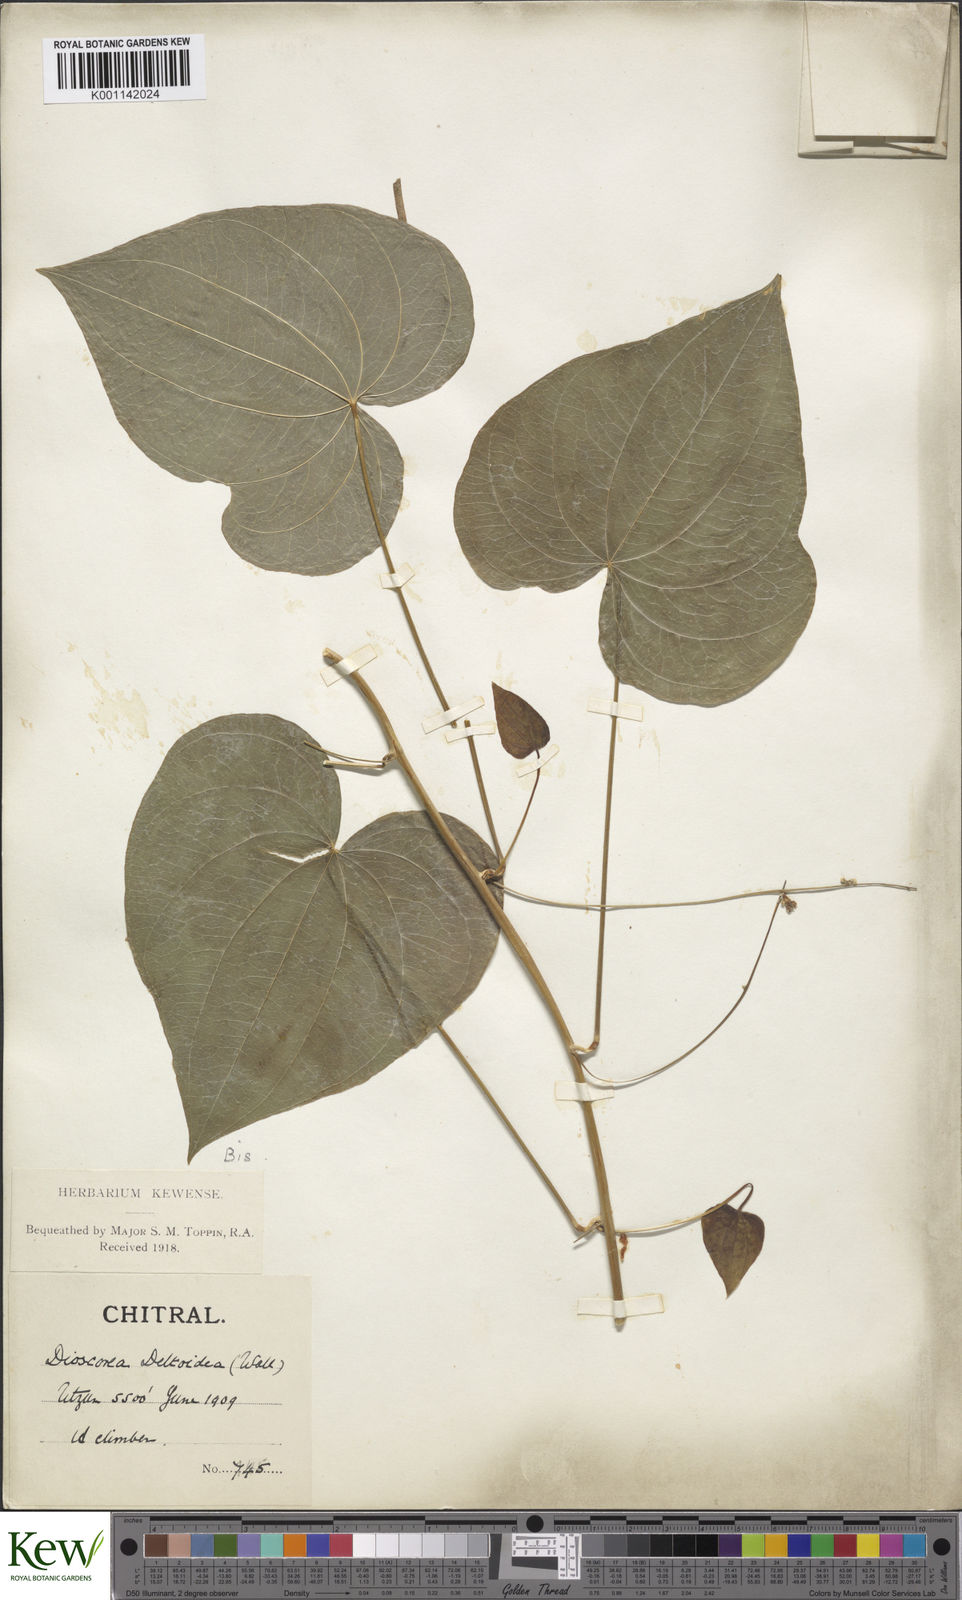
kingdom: Plantae
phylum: Tracheophyta
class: Liliopsida
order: Dioscoreales
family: Dioscoreaceae
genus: Dioscorea
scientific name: Dioscorea deltoidea
